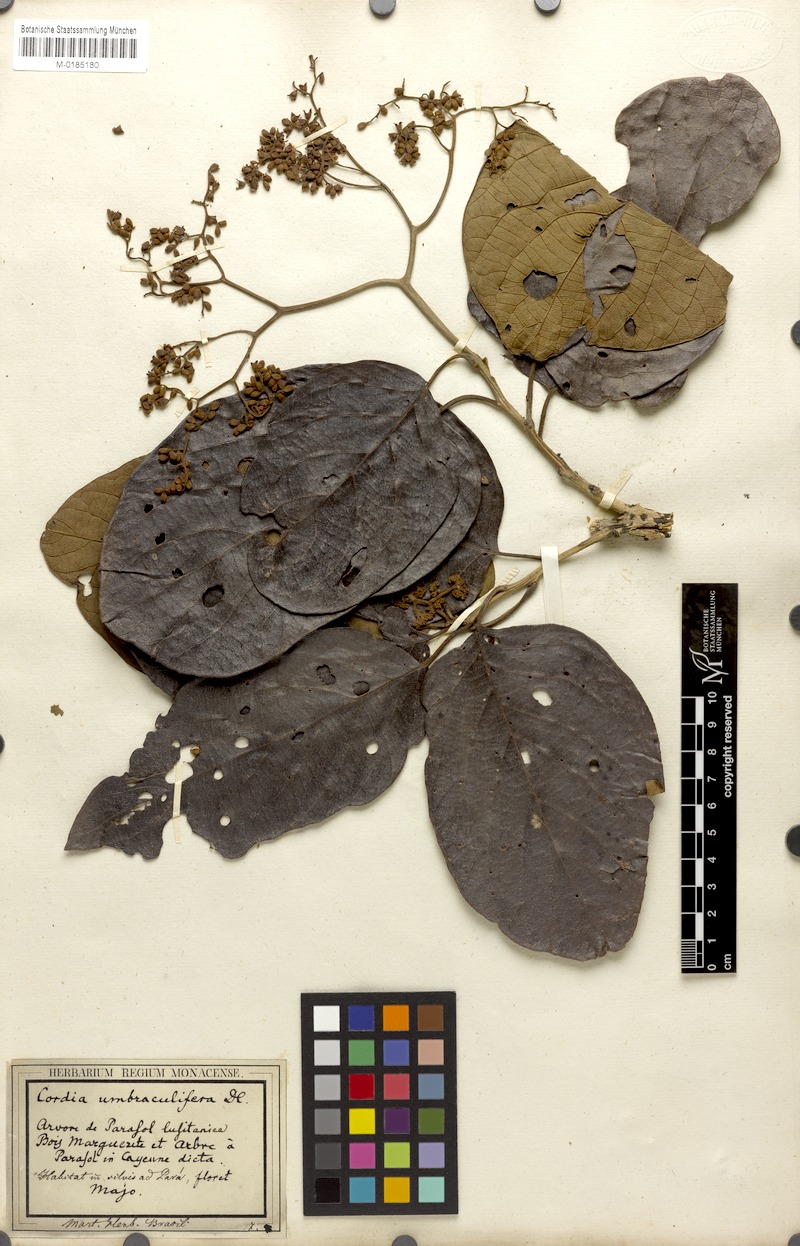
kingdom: Plantae
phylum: Tracheophyta
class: Magnoliopsida
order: Boraginales
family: Cordiaceae
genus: Cordia
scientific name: Cordia tetrandra
